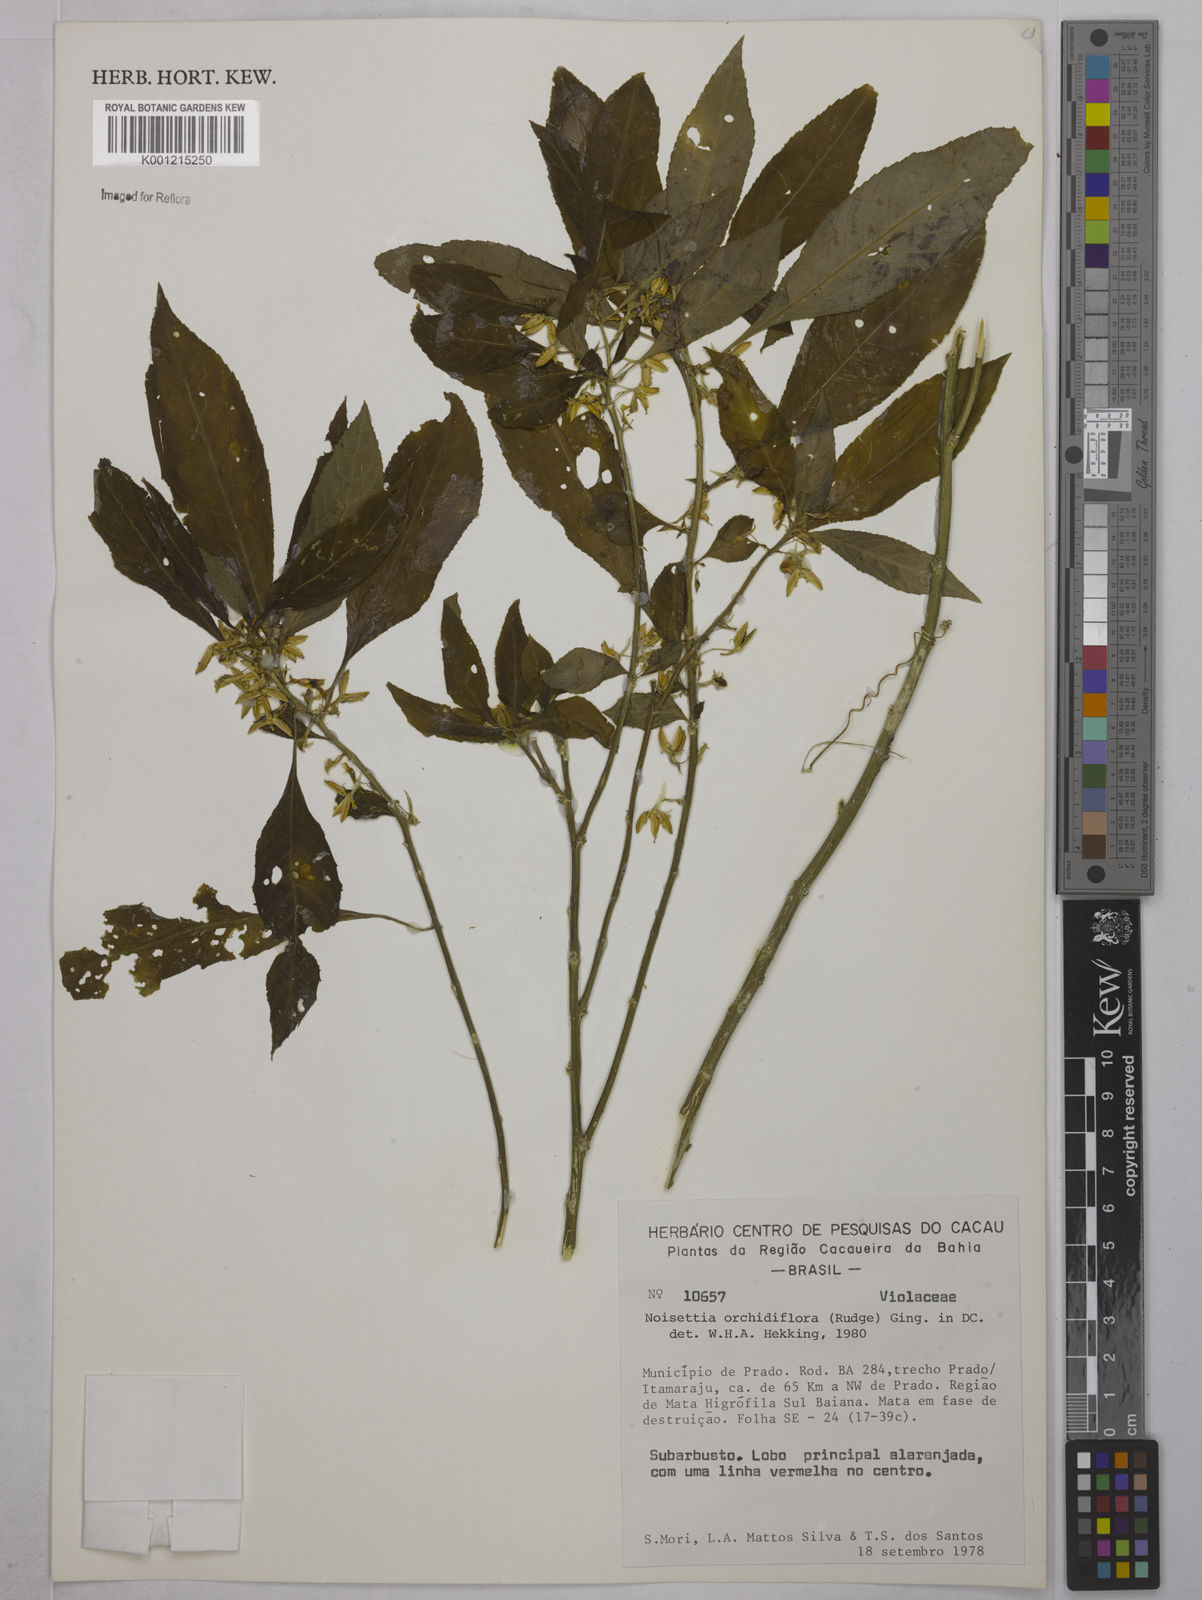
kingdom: Plantae
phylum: Tracheophyta
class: Magnoliopsida
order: Malpighiales
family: Violaceae
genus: Noisettia
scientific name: Noisettia orchidiflora
